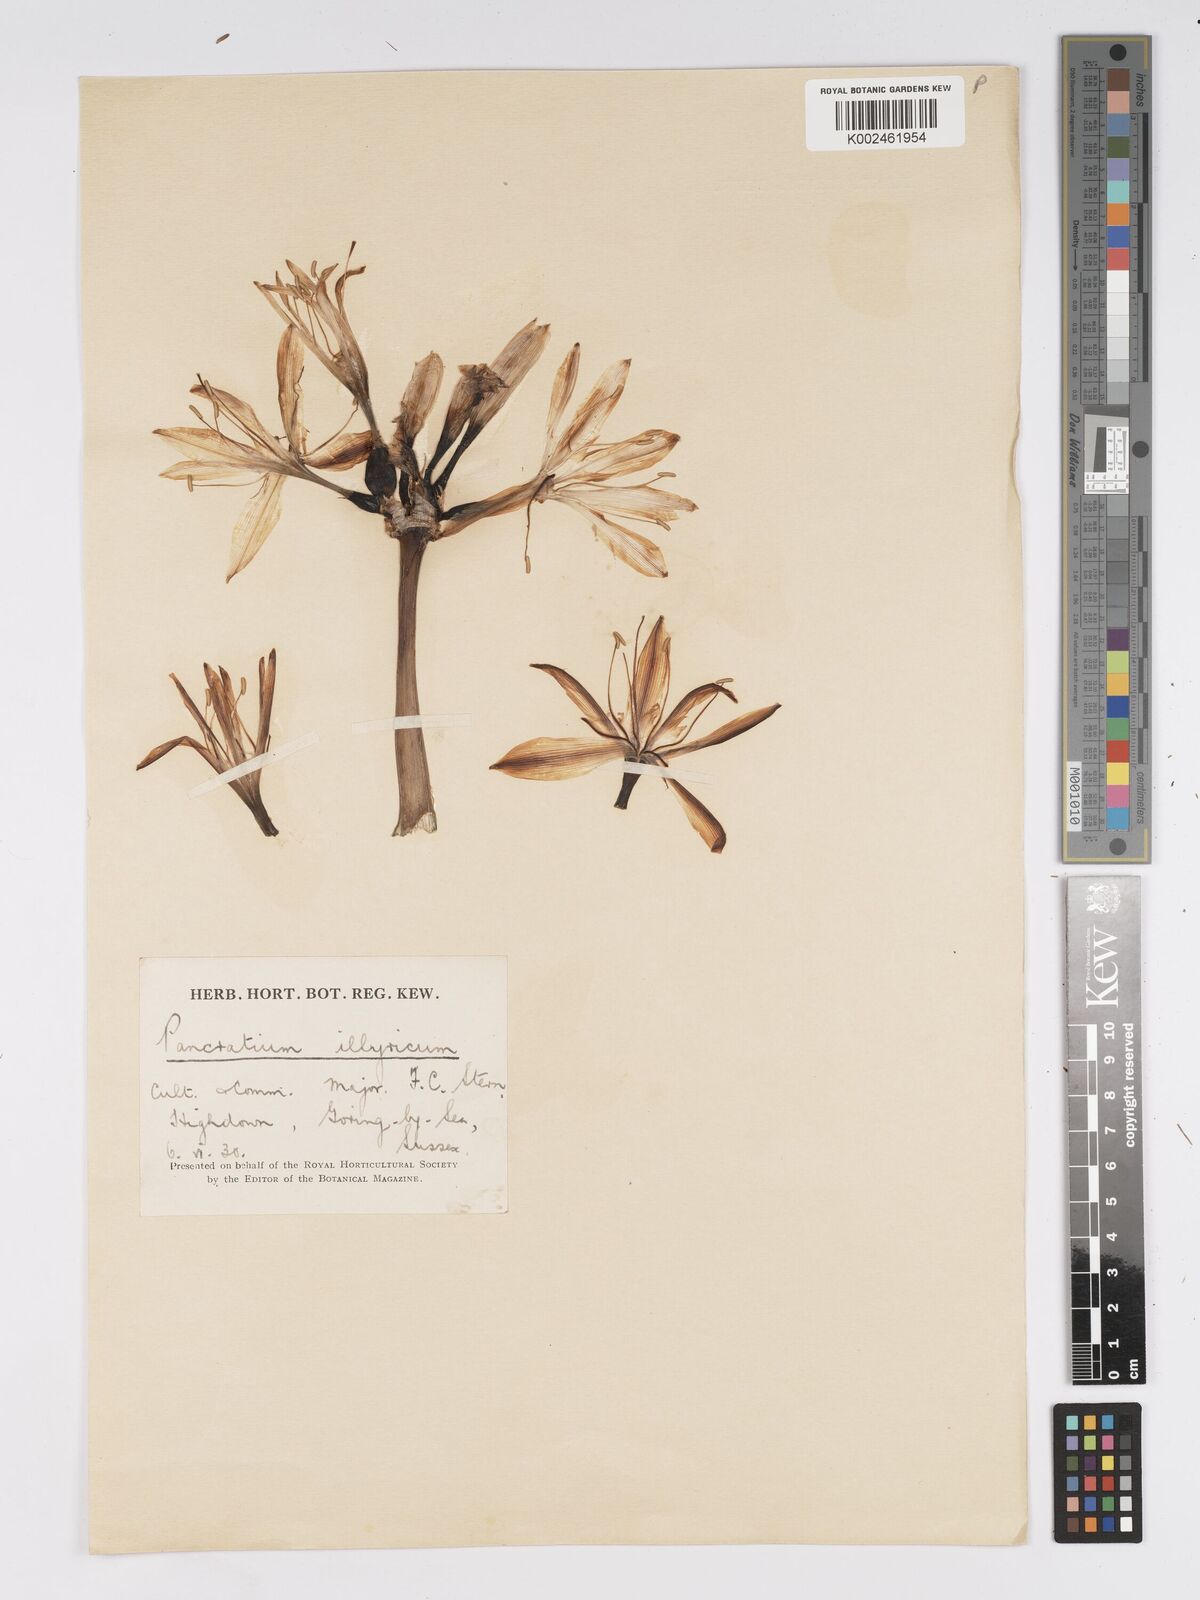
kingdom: Plantae
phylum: Tracheophyta
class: Liliopsida
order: Asparagales
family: Amaryllidaceae
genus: Pancratium
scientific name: Pancratium illyricum
